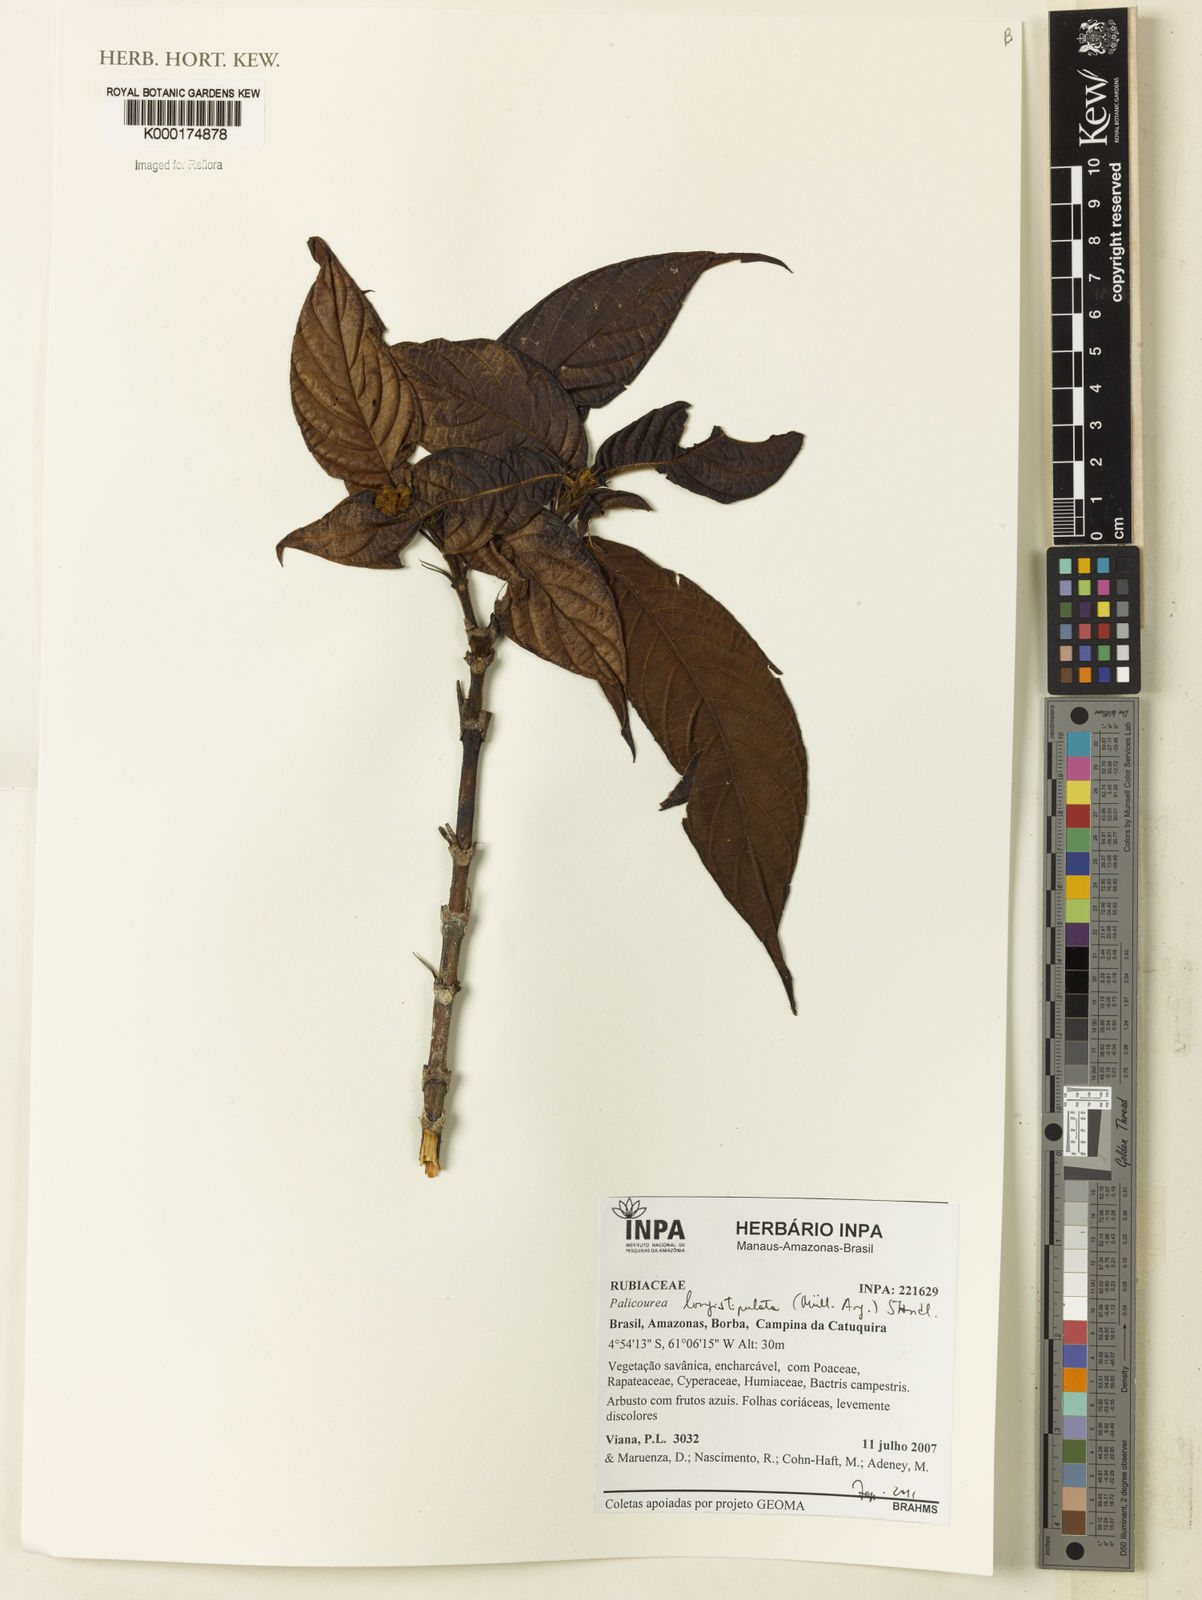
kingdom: Plantae
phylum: Tracheophyta
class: Magnoliopsida
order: Gentianales
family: Rubiaceae
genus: Palicourea
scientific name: Palicourea
